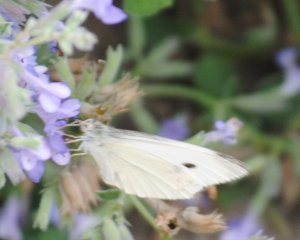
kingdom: Animalia
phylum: Arthropoda
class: Insecta
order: Lepidoptera
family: Pieridae
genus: Pieris
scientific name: Pieris rapae
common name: Cabbage White
